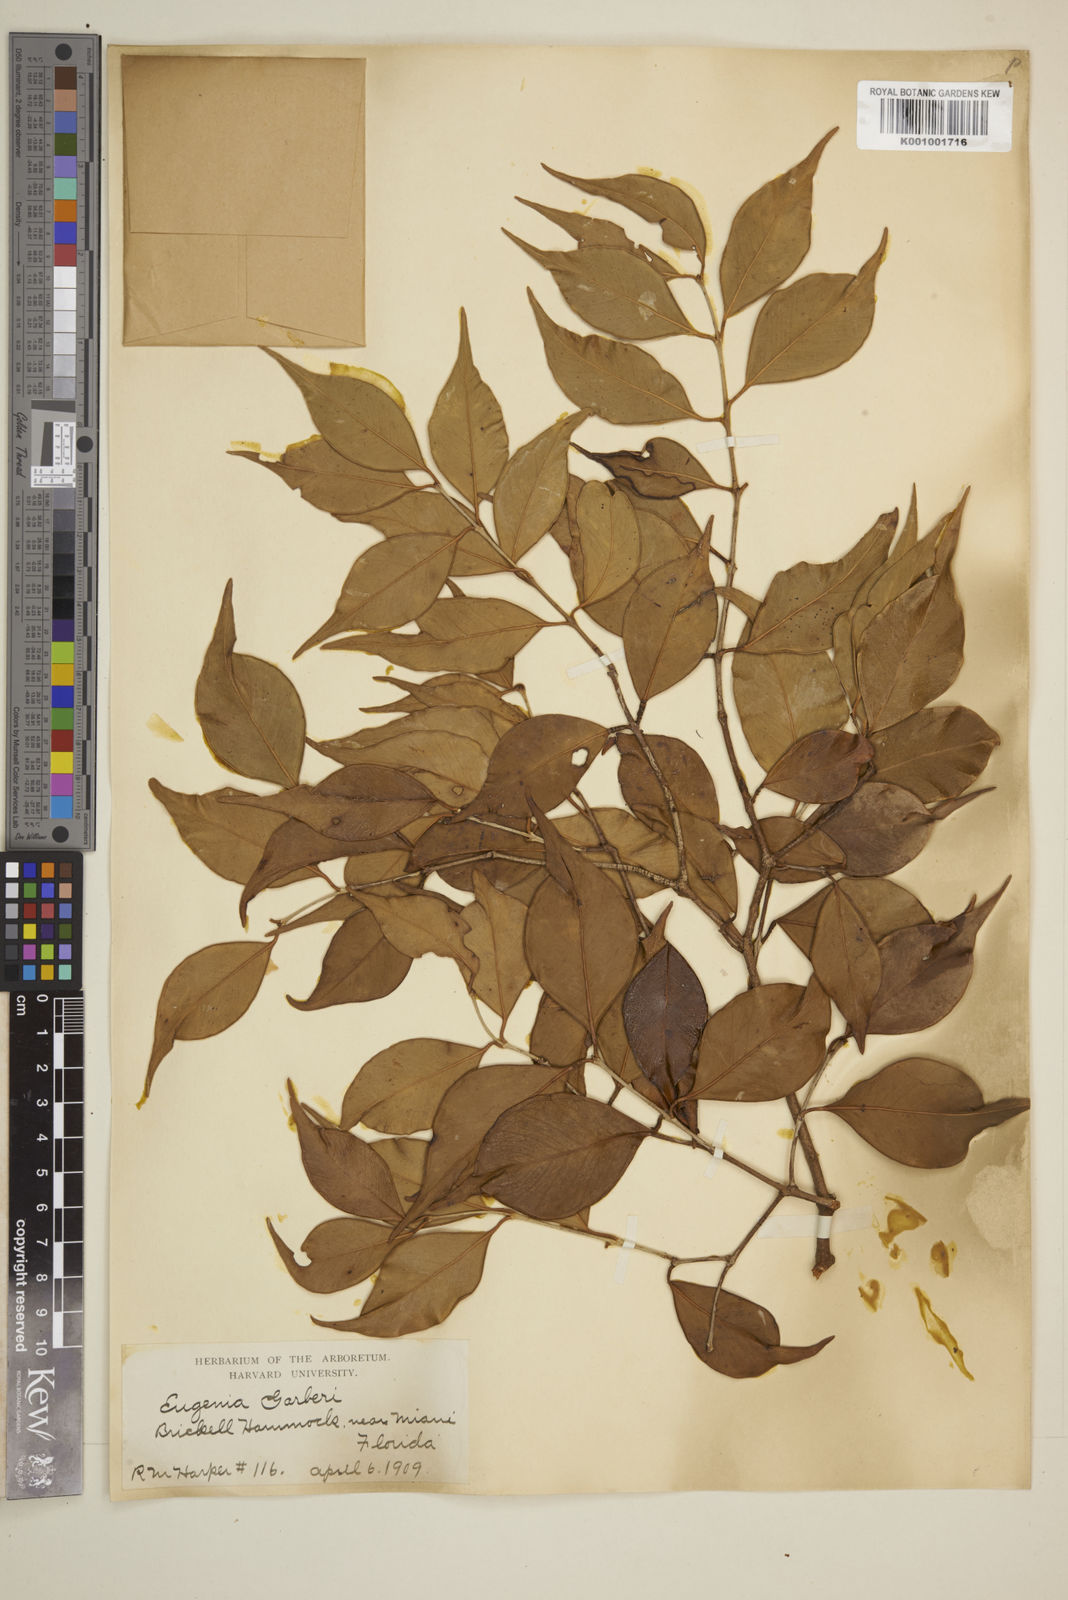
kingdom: Plantae
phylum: Tracheophyta
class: Magnoliopsida
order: Myrtales
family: Myrtaceae
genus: Eugenia
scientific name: Eugenia confusa
